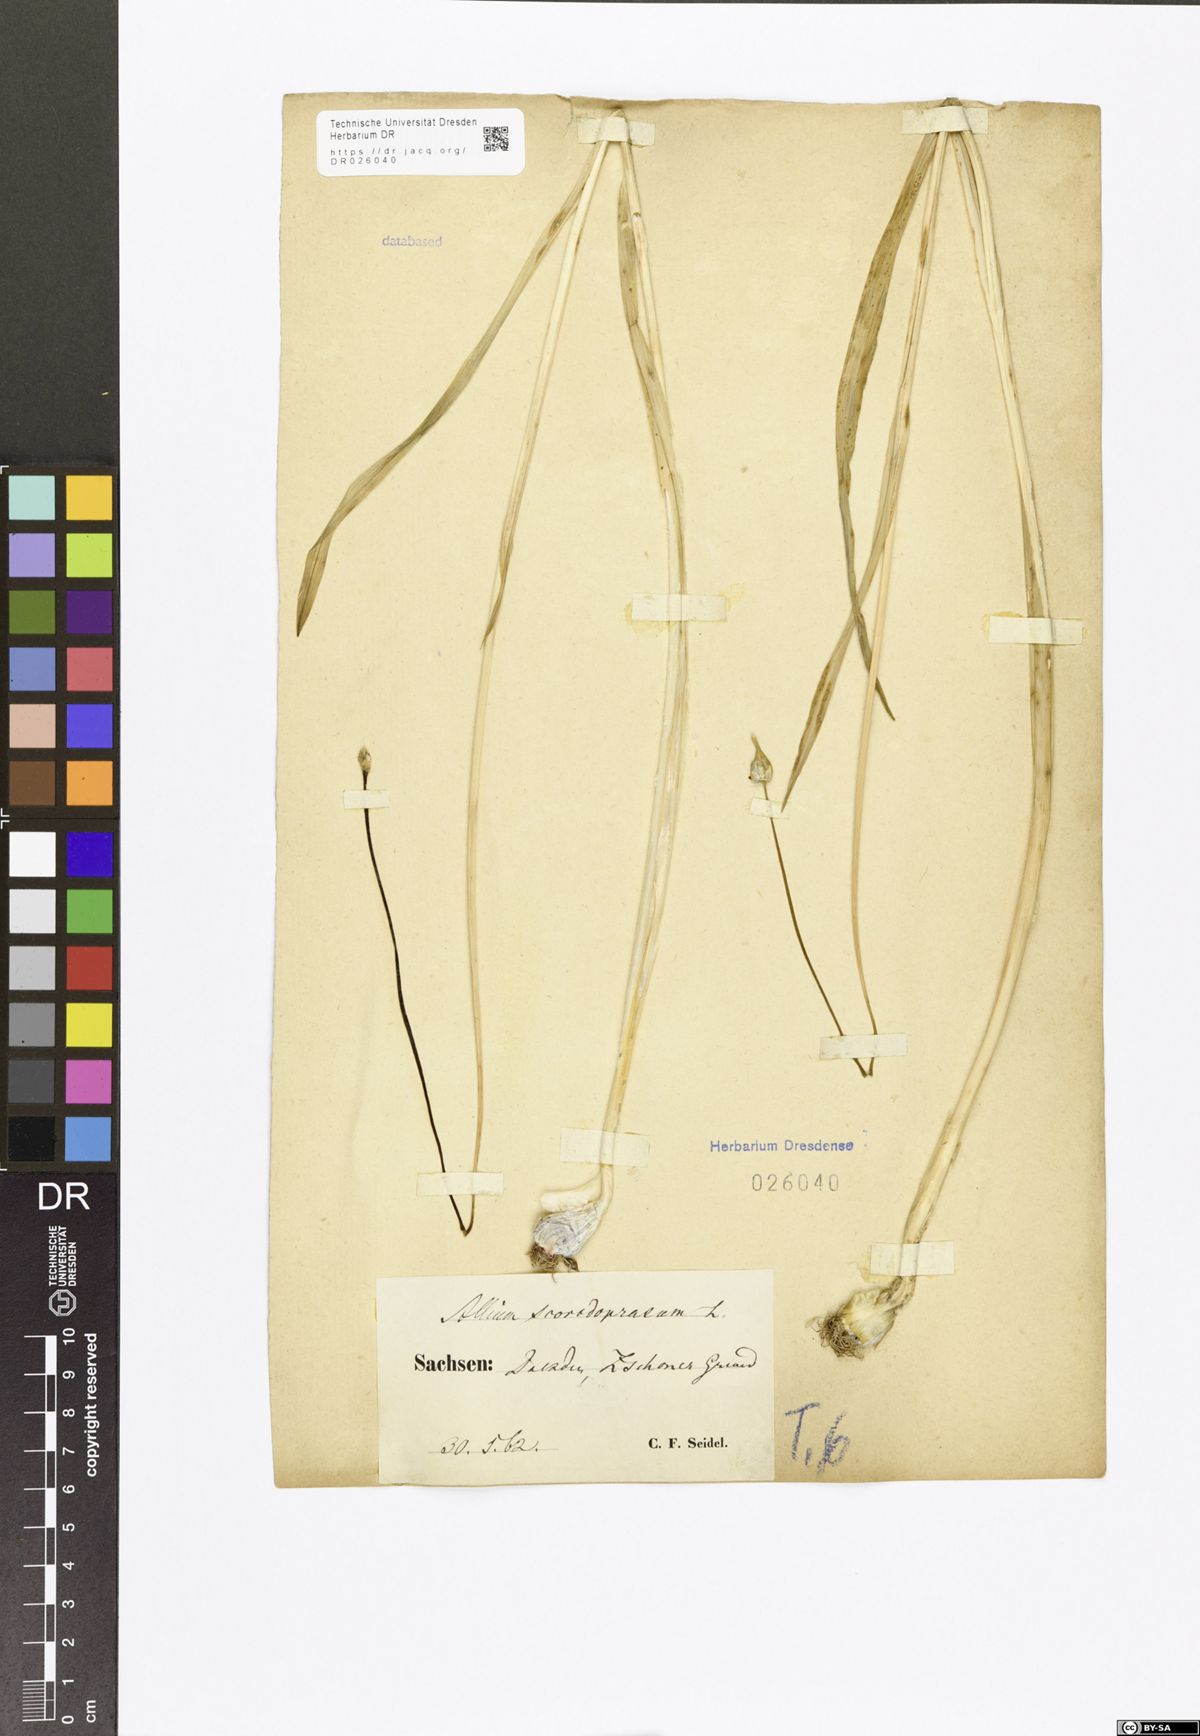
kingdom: Plantae
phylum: Tracheophyta
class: Liliopsida
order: Asparagales
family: Amaryllidaceae
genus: Allium
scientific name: Allium scorodoprasum
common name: Sand leek
